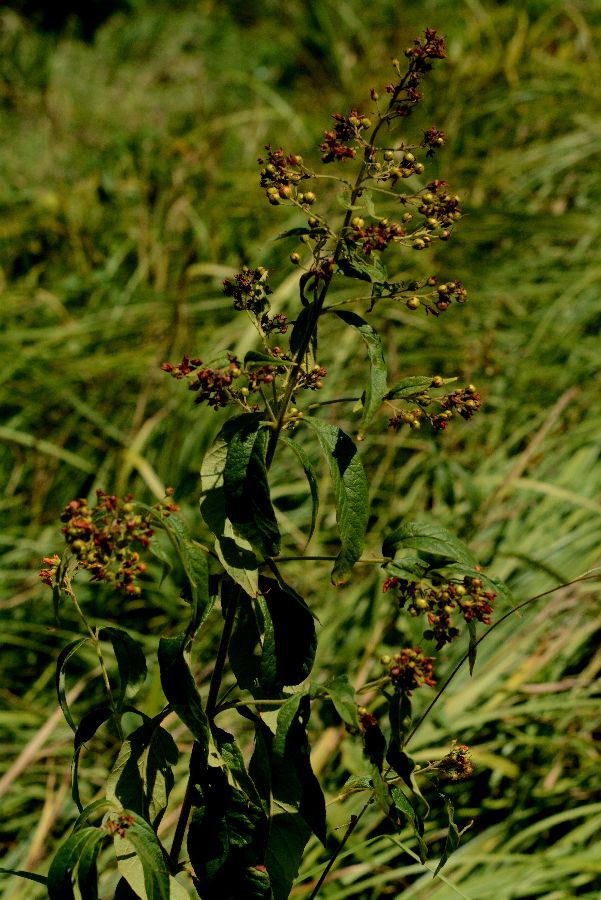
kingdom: Plantae
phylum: Tracheophyta
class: Magnoliopsida
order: Ericales
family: Primulaceae
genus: Lysimachia
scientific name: Lysimachia vulgaris
